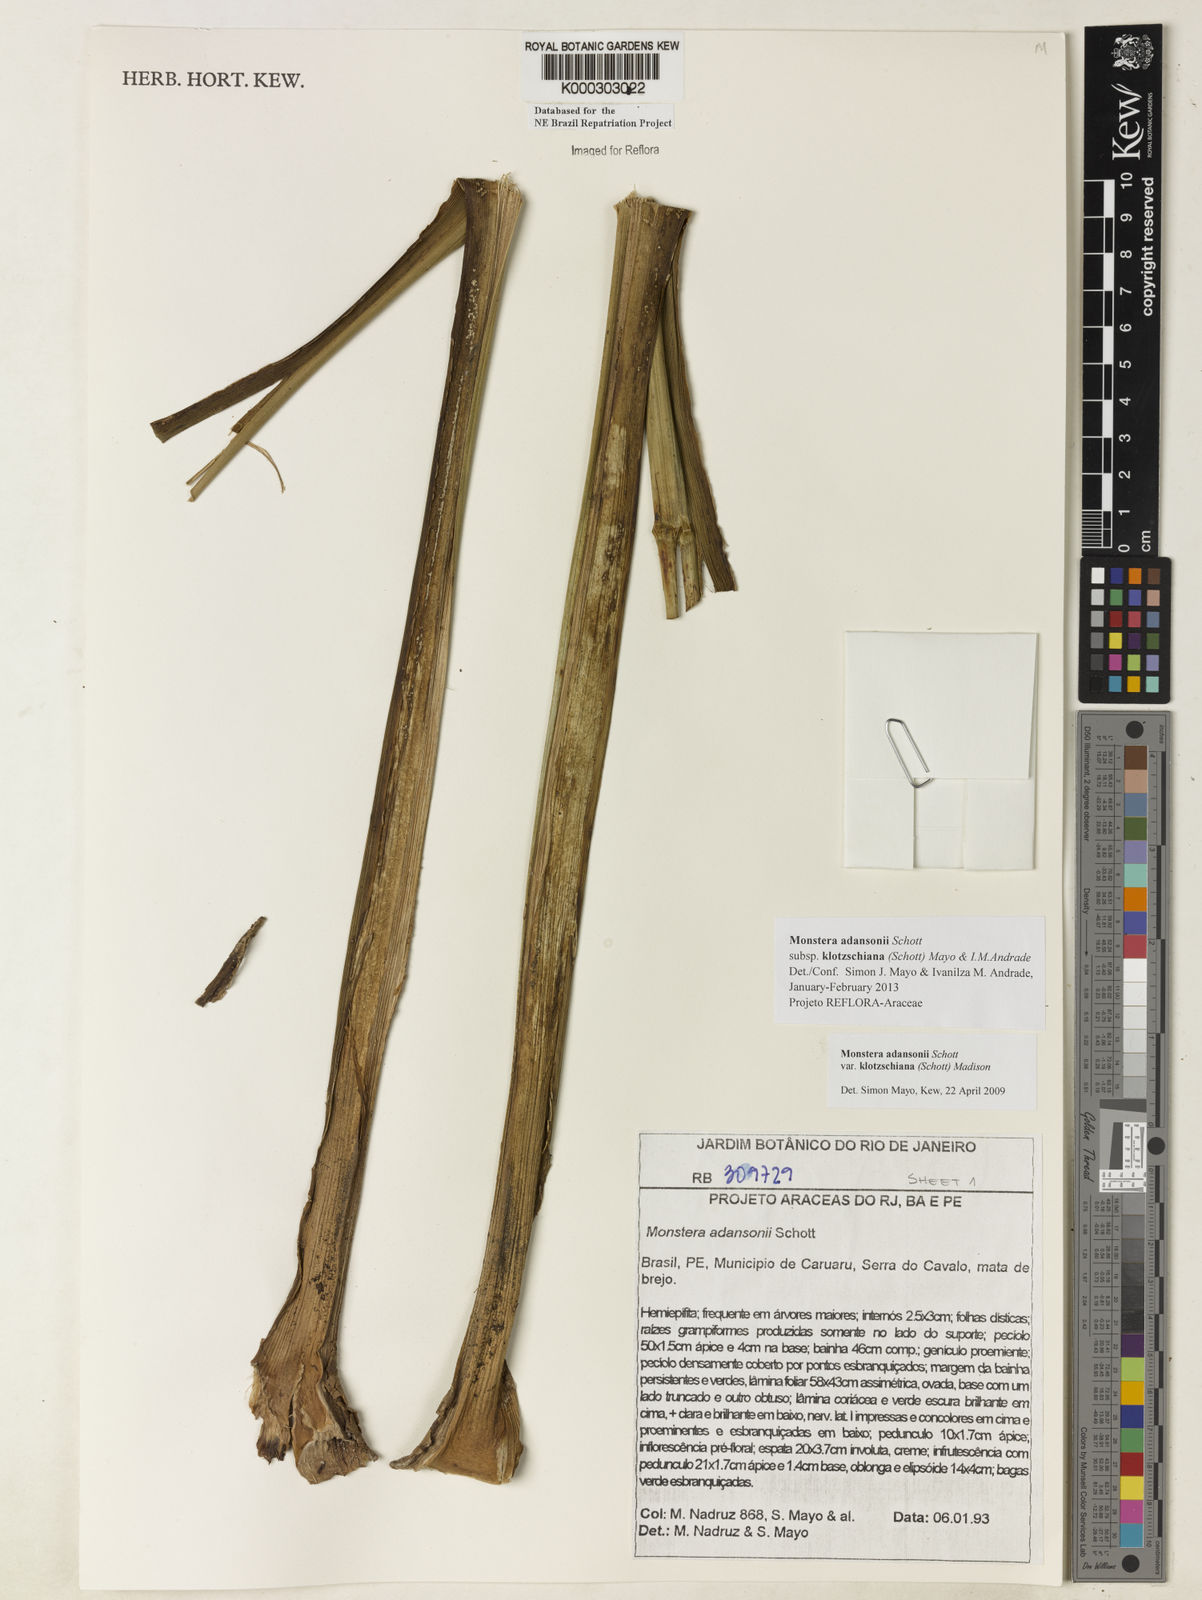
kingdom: Plantae
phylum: Tracheophyta
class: Liliopsida
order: Alismatales
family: Araceae
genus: Monstera
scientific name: Monstera adansonii
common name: Tarovine
